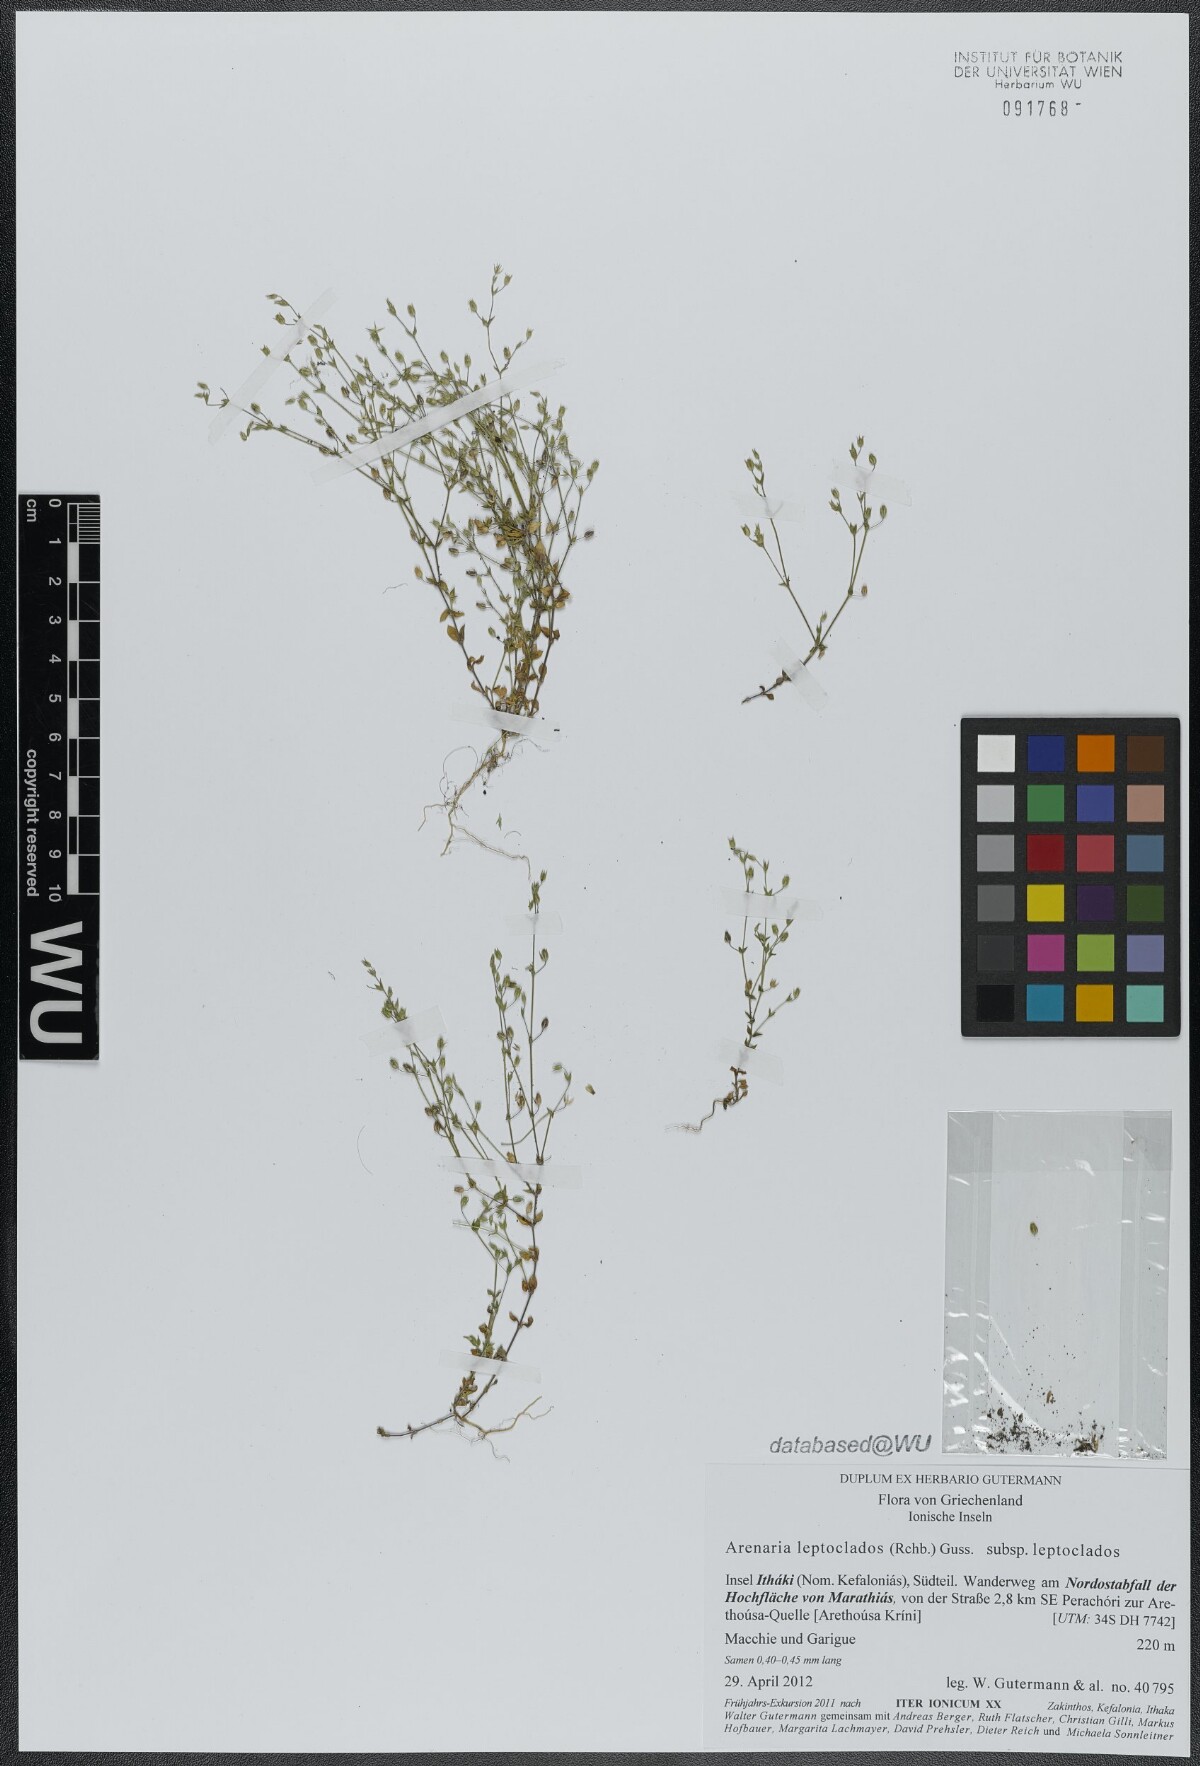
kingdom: Plantae
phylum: Tracheophyta
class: Magnoliopsida
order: Caryophyllales
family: Caryophyllaceae
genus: Arenaria
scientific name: Arenaria leptoclados
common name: Thyme-leaved sandwort
